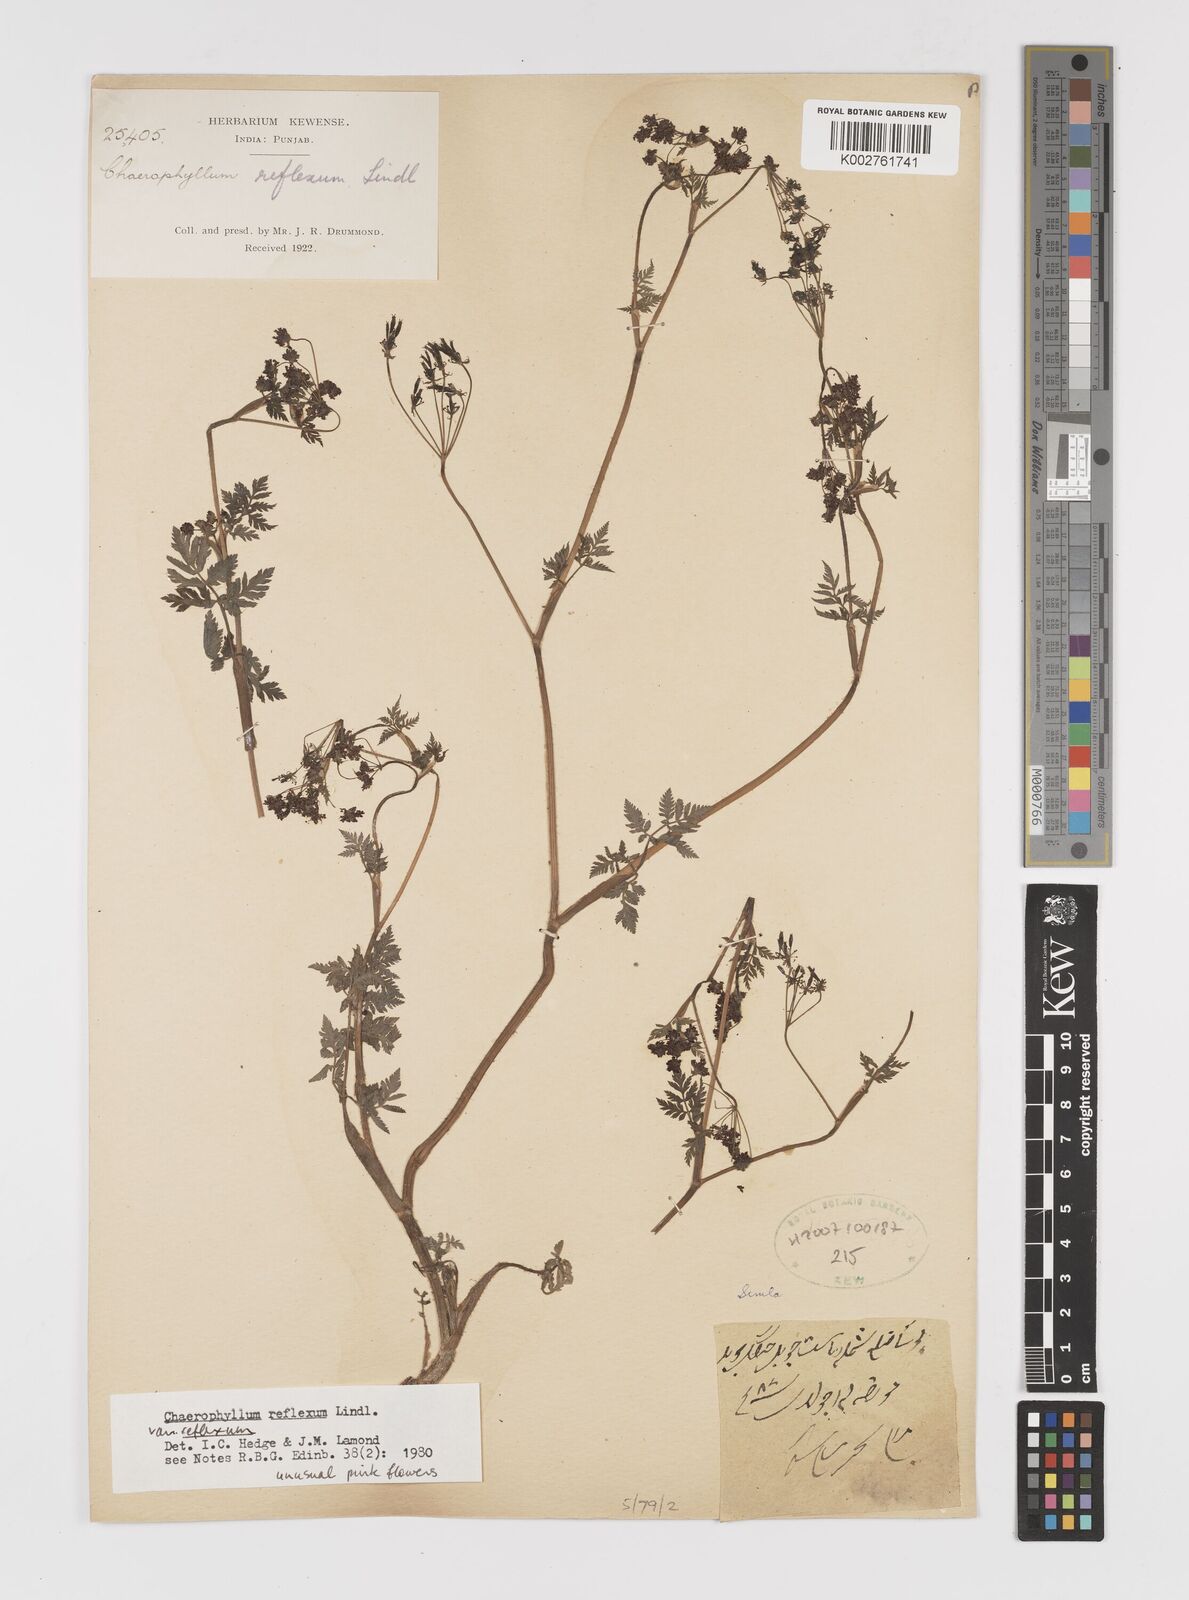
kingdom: Plantae
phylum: Tracheophyta
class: Magnoliopsida
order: Apiales
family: Apiaceae
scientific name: Apiaceae
